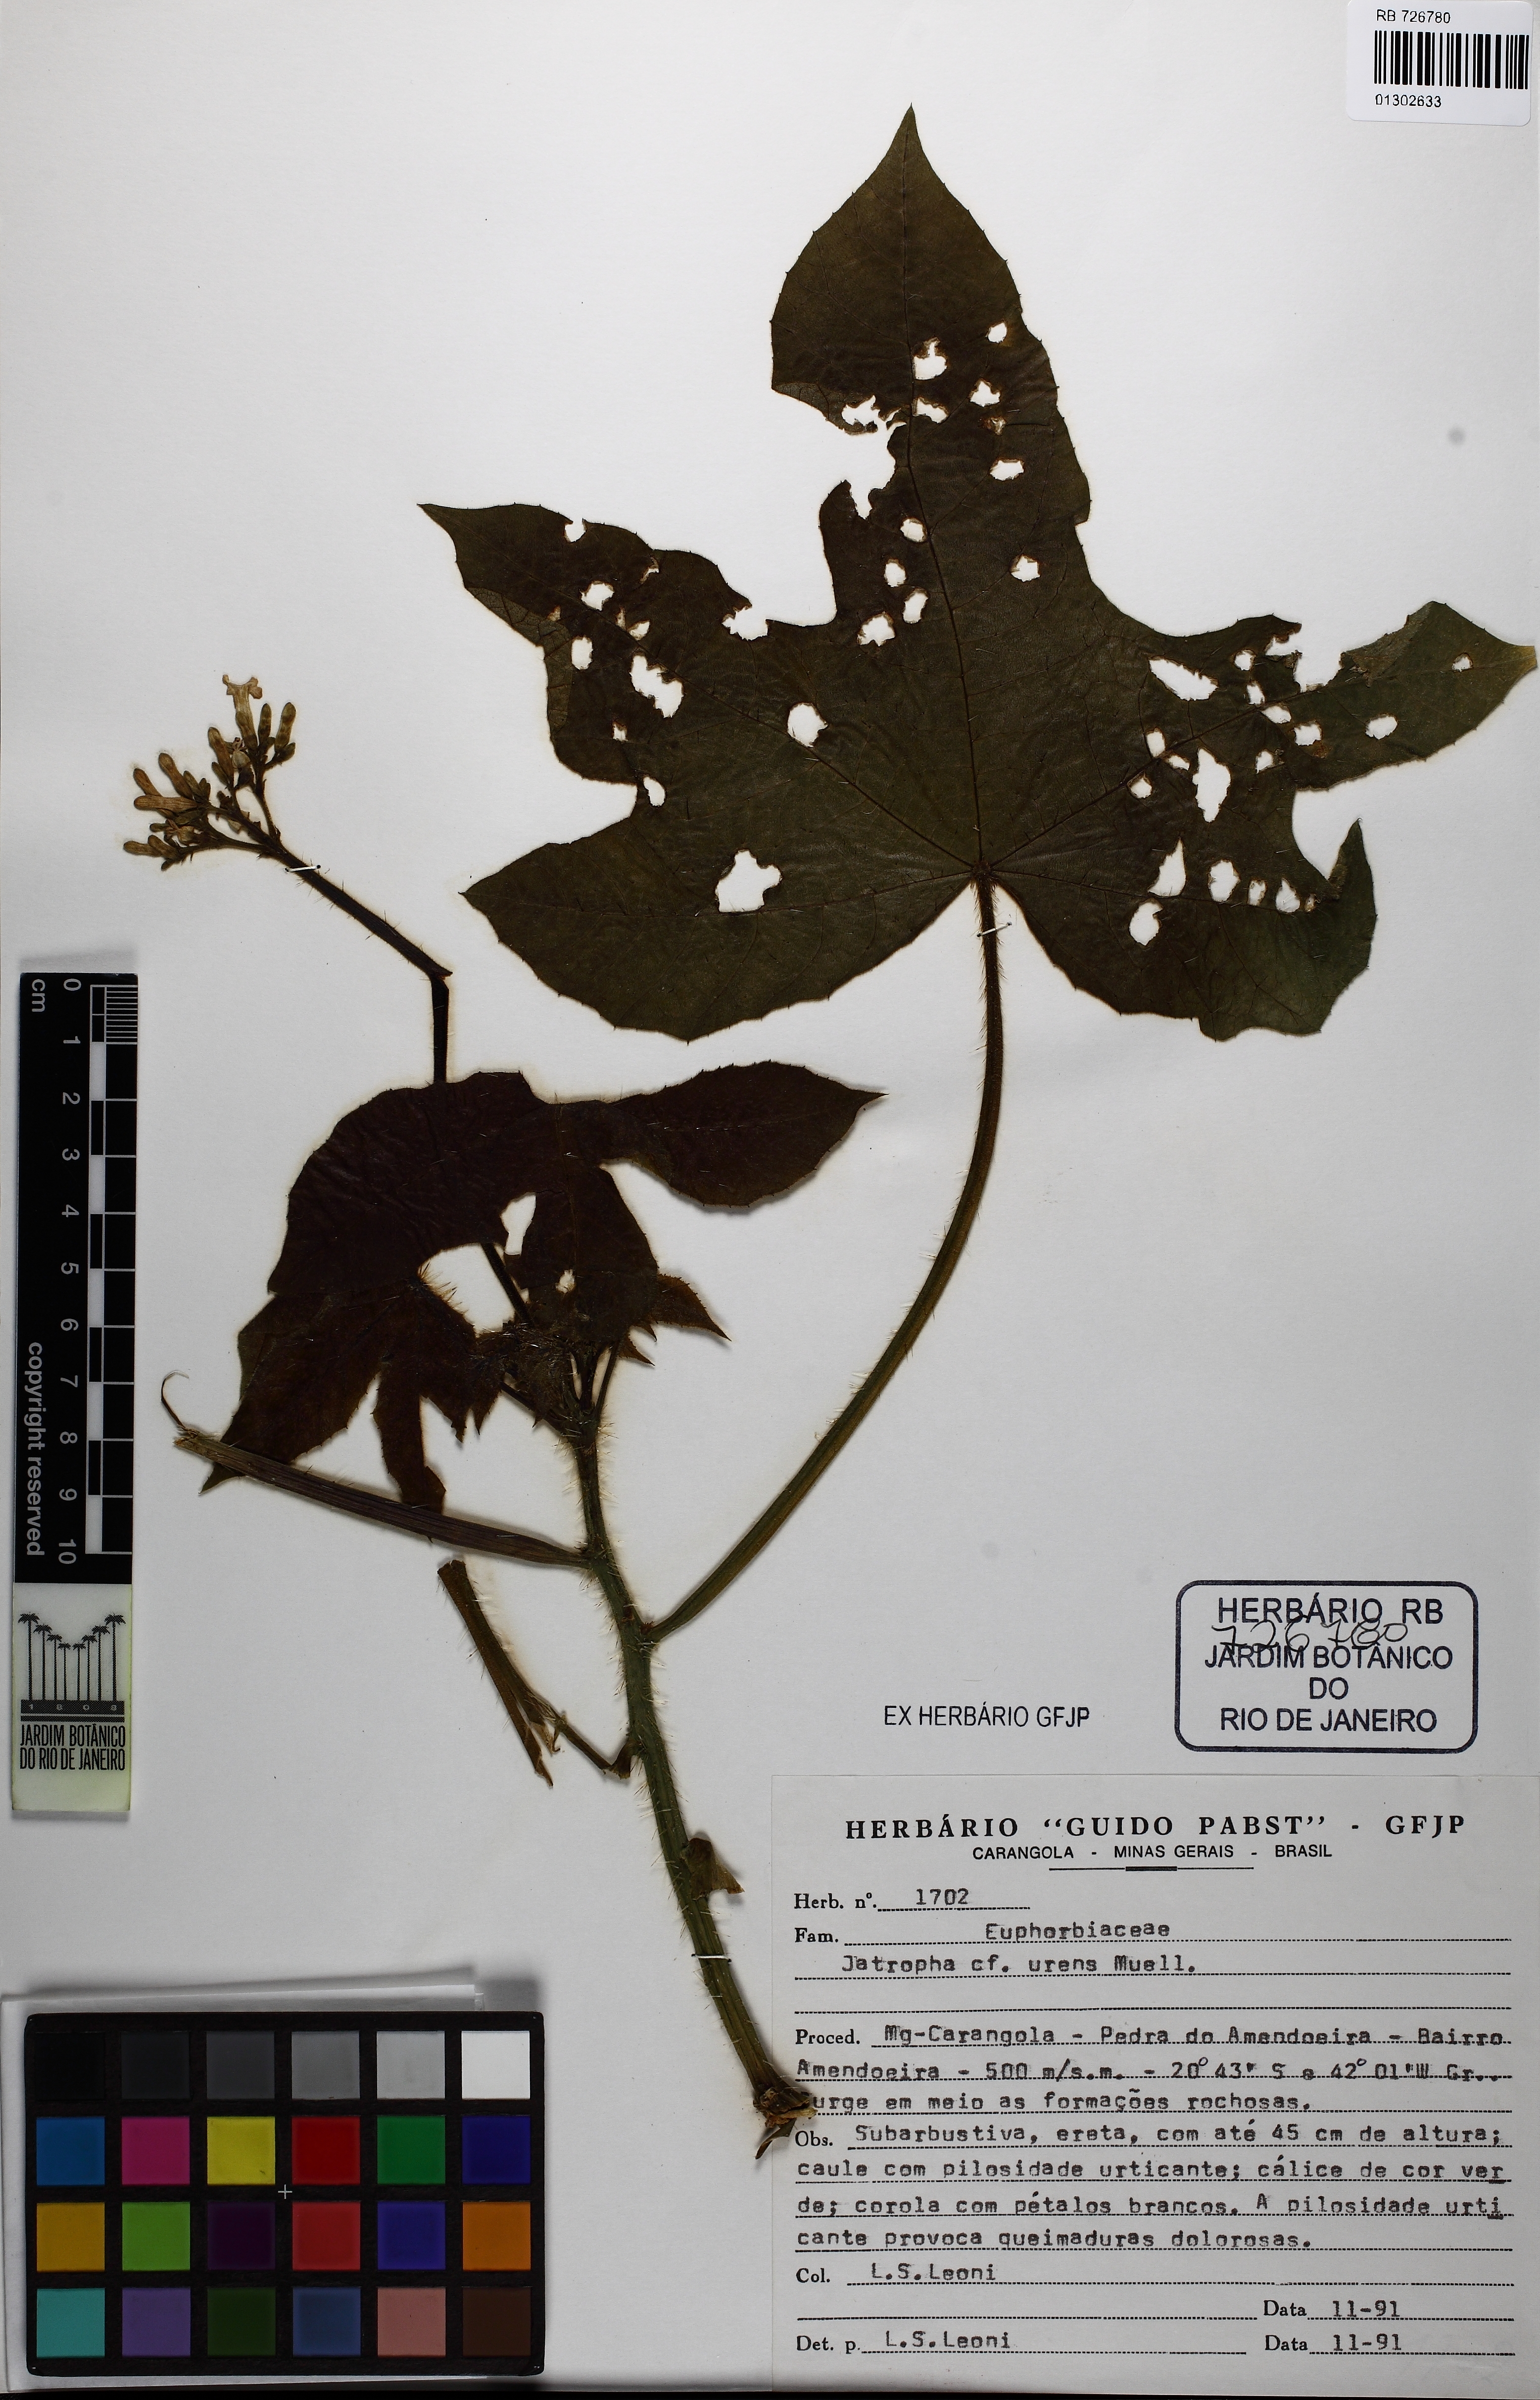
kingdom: Plantae
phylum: Tracheophyta
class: Magnoliopsida
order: Malpighiales
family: Euphorbiaceae
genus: Cnidoscolus
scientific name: Cnidoscolus urens
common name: Bull-nettle
